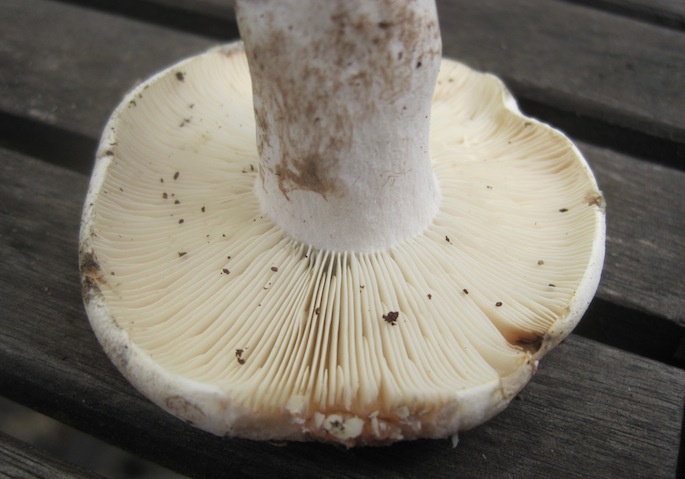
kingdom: Fungi
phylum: Basidiomycota
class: Agaricomycetes
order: Russulales
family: Russulaceae
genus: Russula
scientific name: Russula densifolia
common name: tætbladet skørhat
